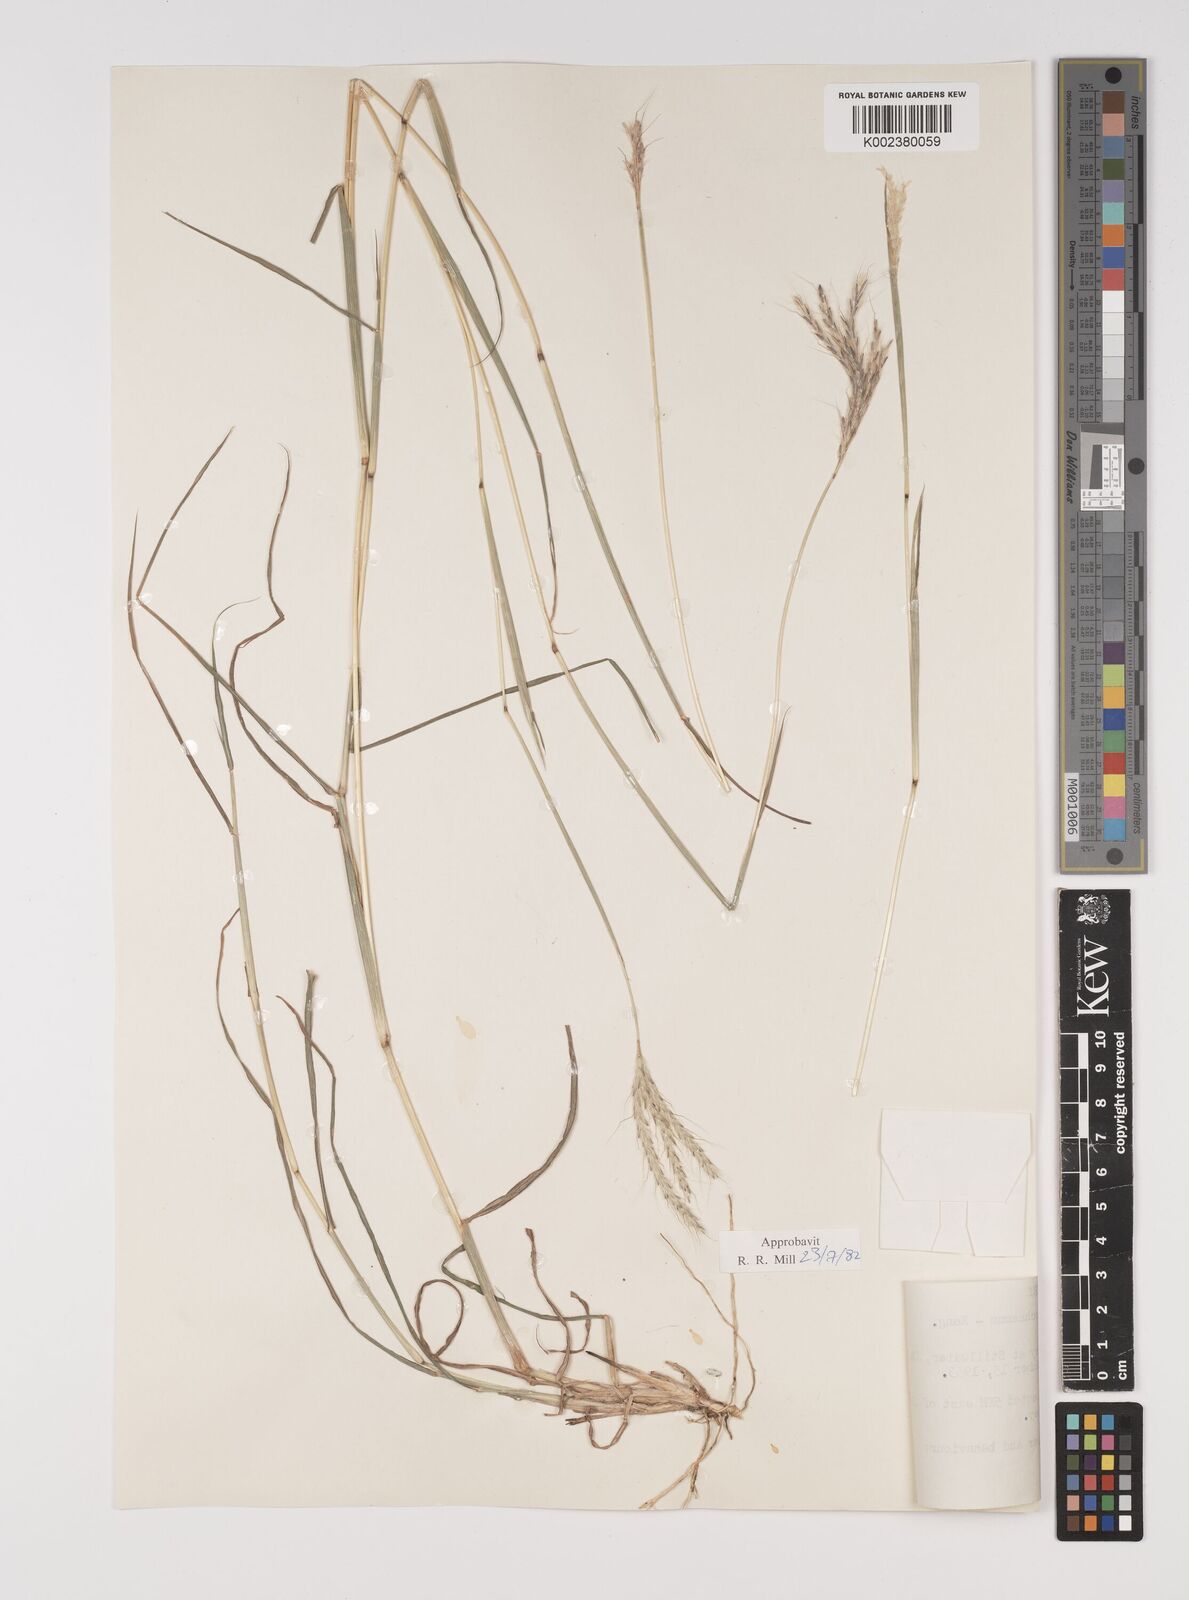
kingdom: Plantae
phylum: Tracheophyta
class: Liliopsida
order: Poales
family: Poaceae
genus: Bothriochloa
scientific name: Bothriochloa ischaemum
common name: Yellow bluestem
